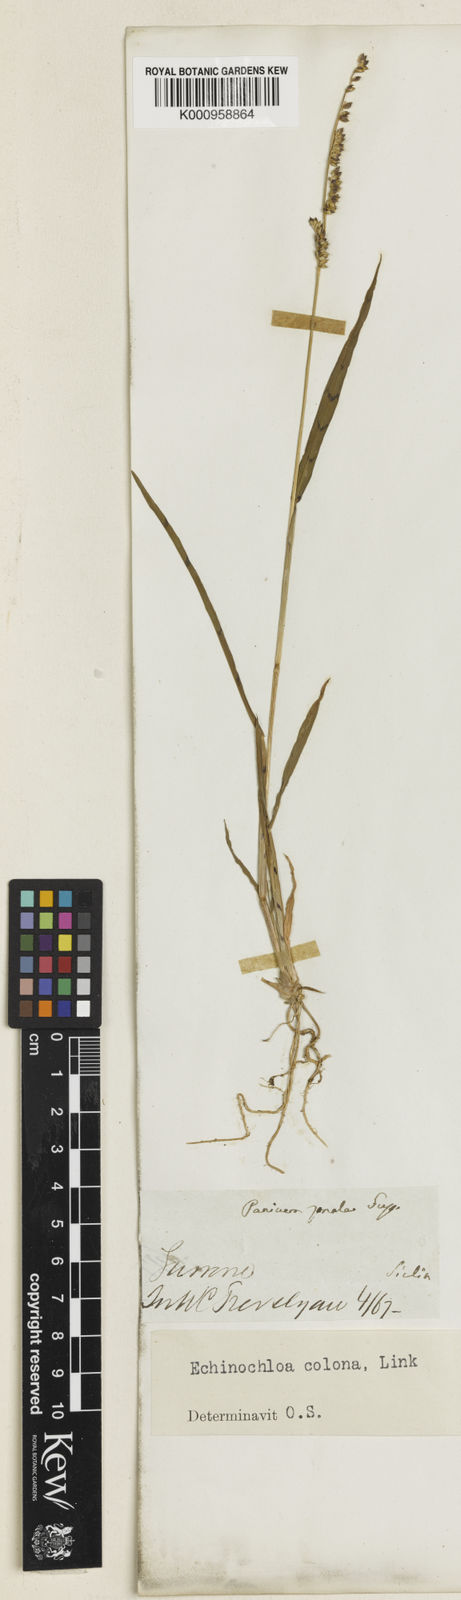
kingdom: Plantae
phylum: Tracheophyta
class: Liliopsida
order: Poales
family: Poaceae
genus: Echinochloa
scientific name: Echinochloa colonum
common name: Jungle rice
